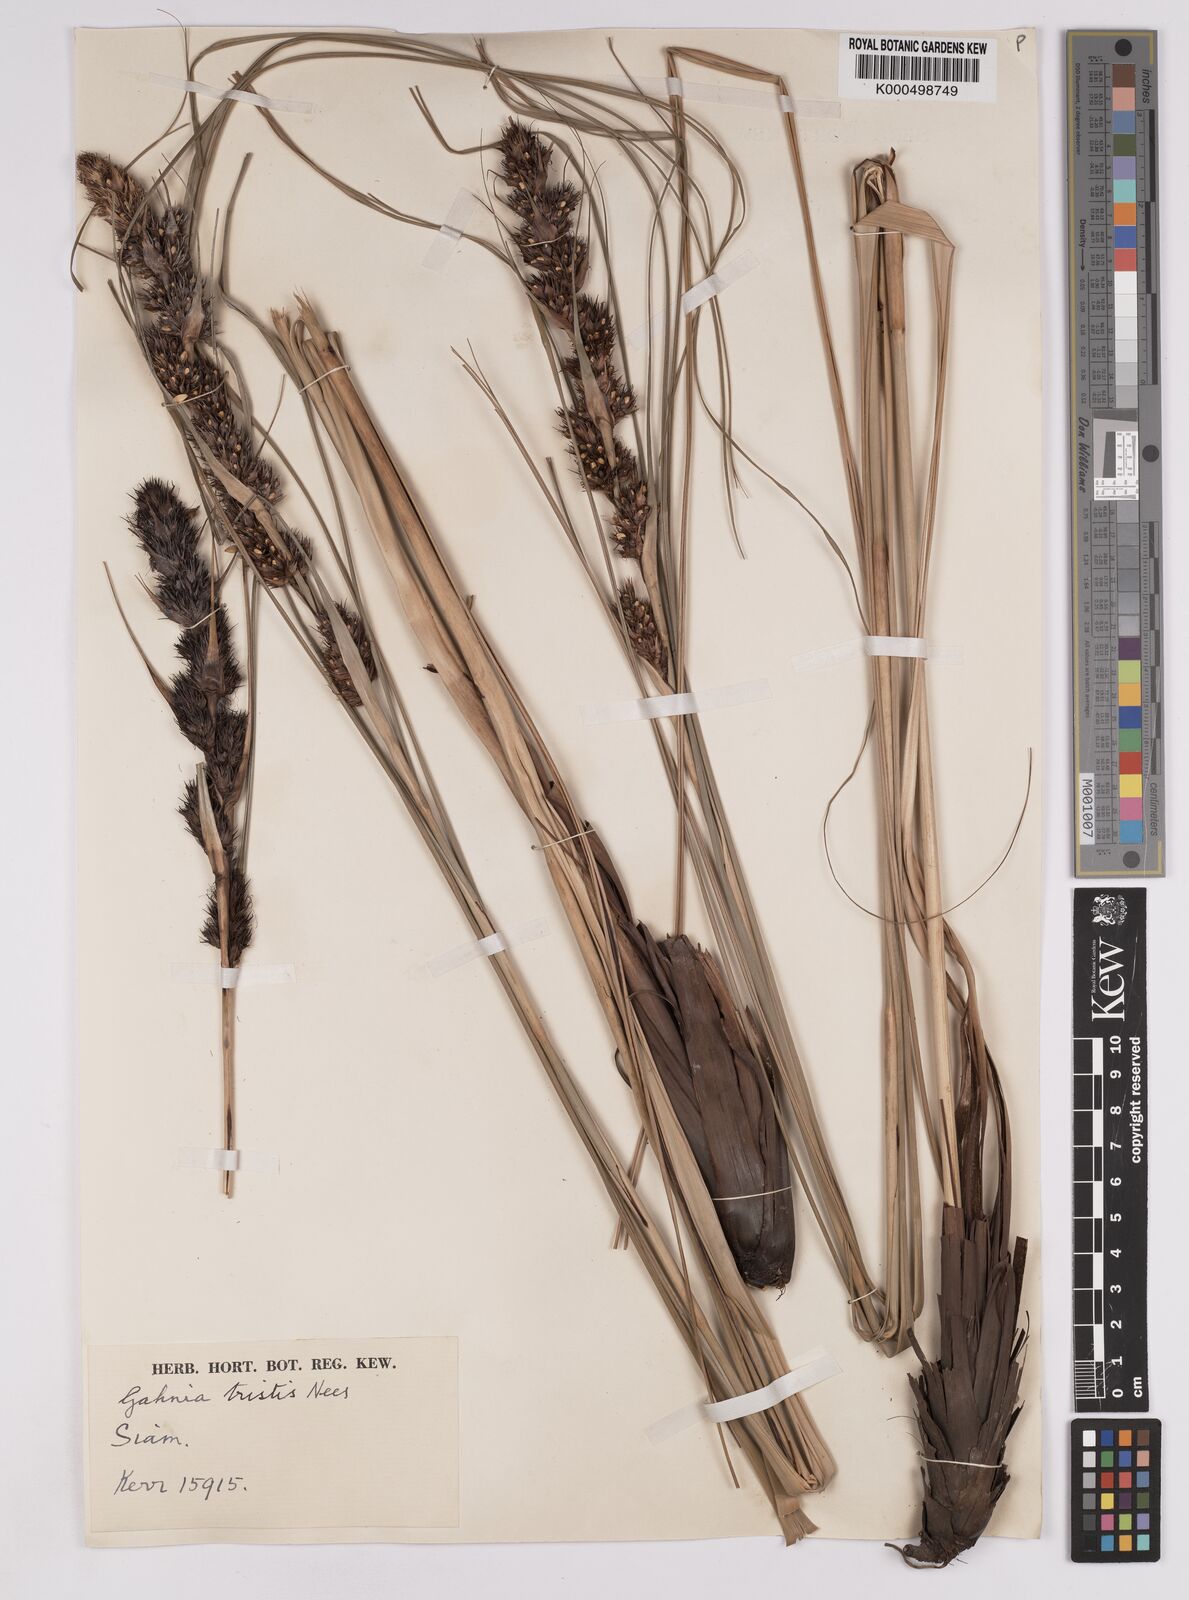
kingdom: Plantae
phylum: Tracheophyta
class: Liliopsida
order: Poales
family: Cyperaceae
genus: Gahnia
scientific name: Gahnia tristis
